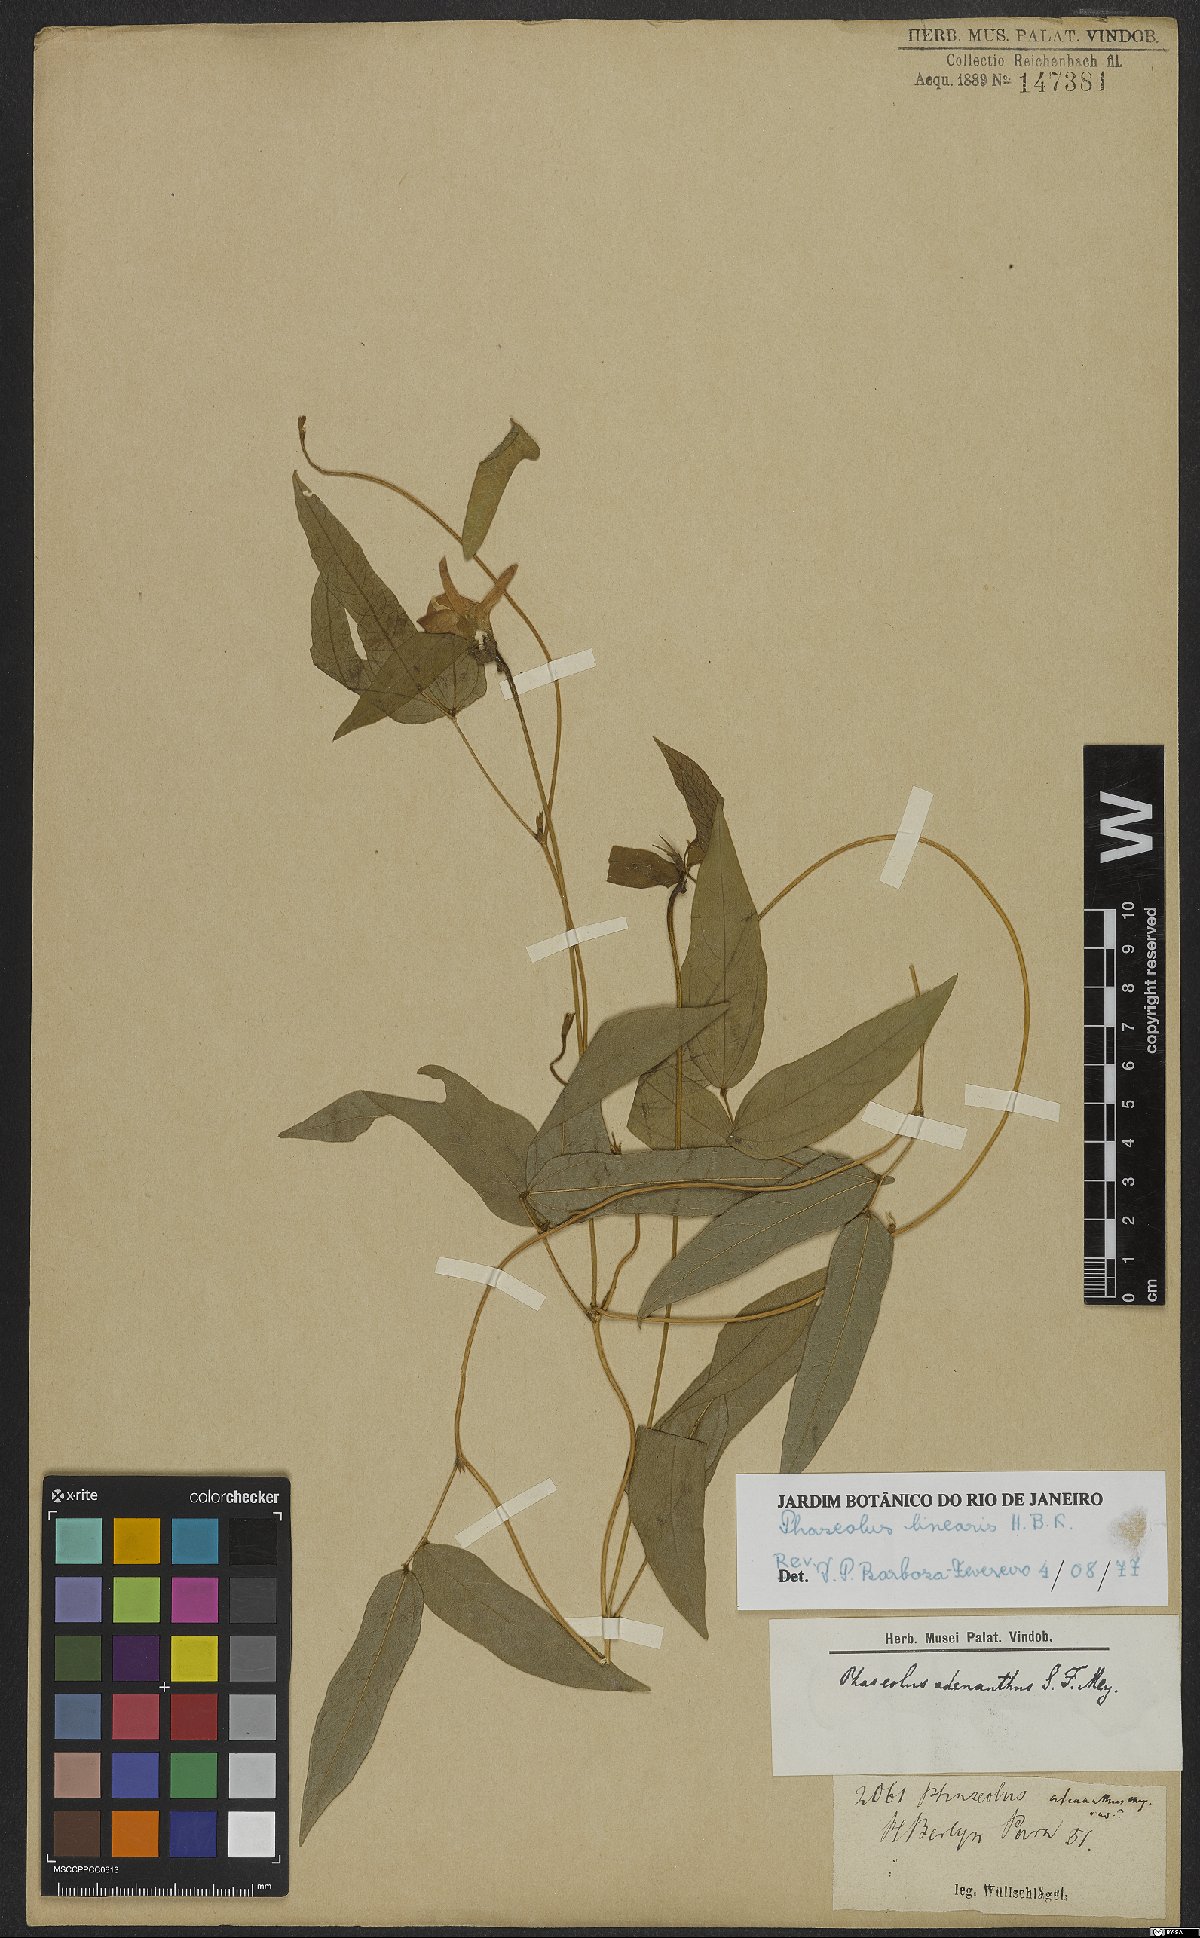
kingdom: Plantae
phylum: Tracheophyta
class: Magnoliopsida
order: Fabales
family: Fabaceae
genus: Helicotropis
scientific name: Helicotropis linearis
